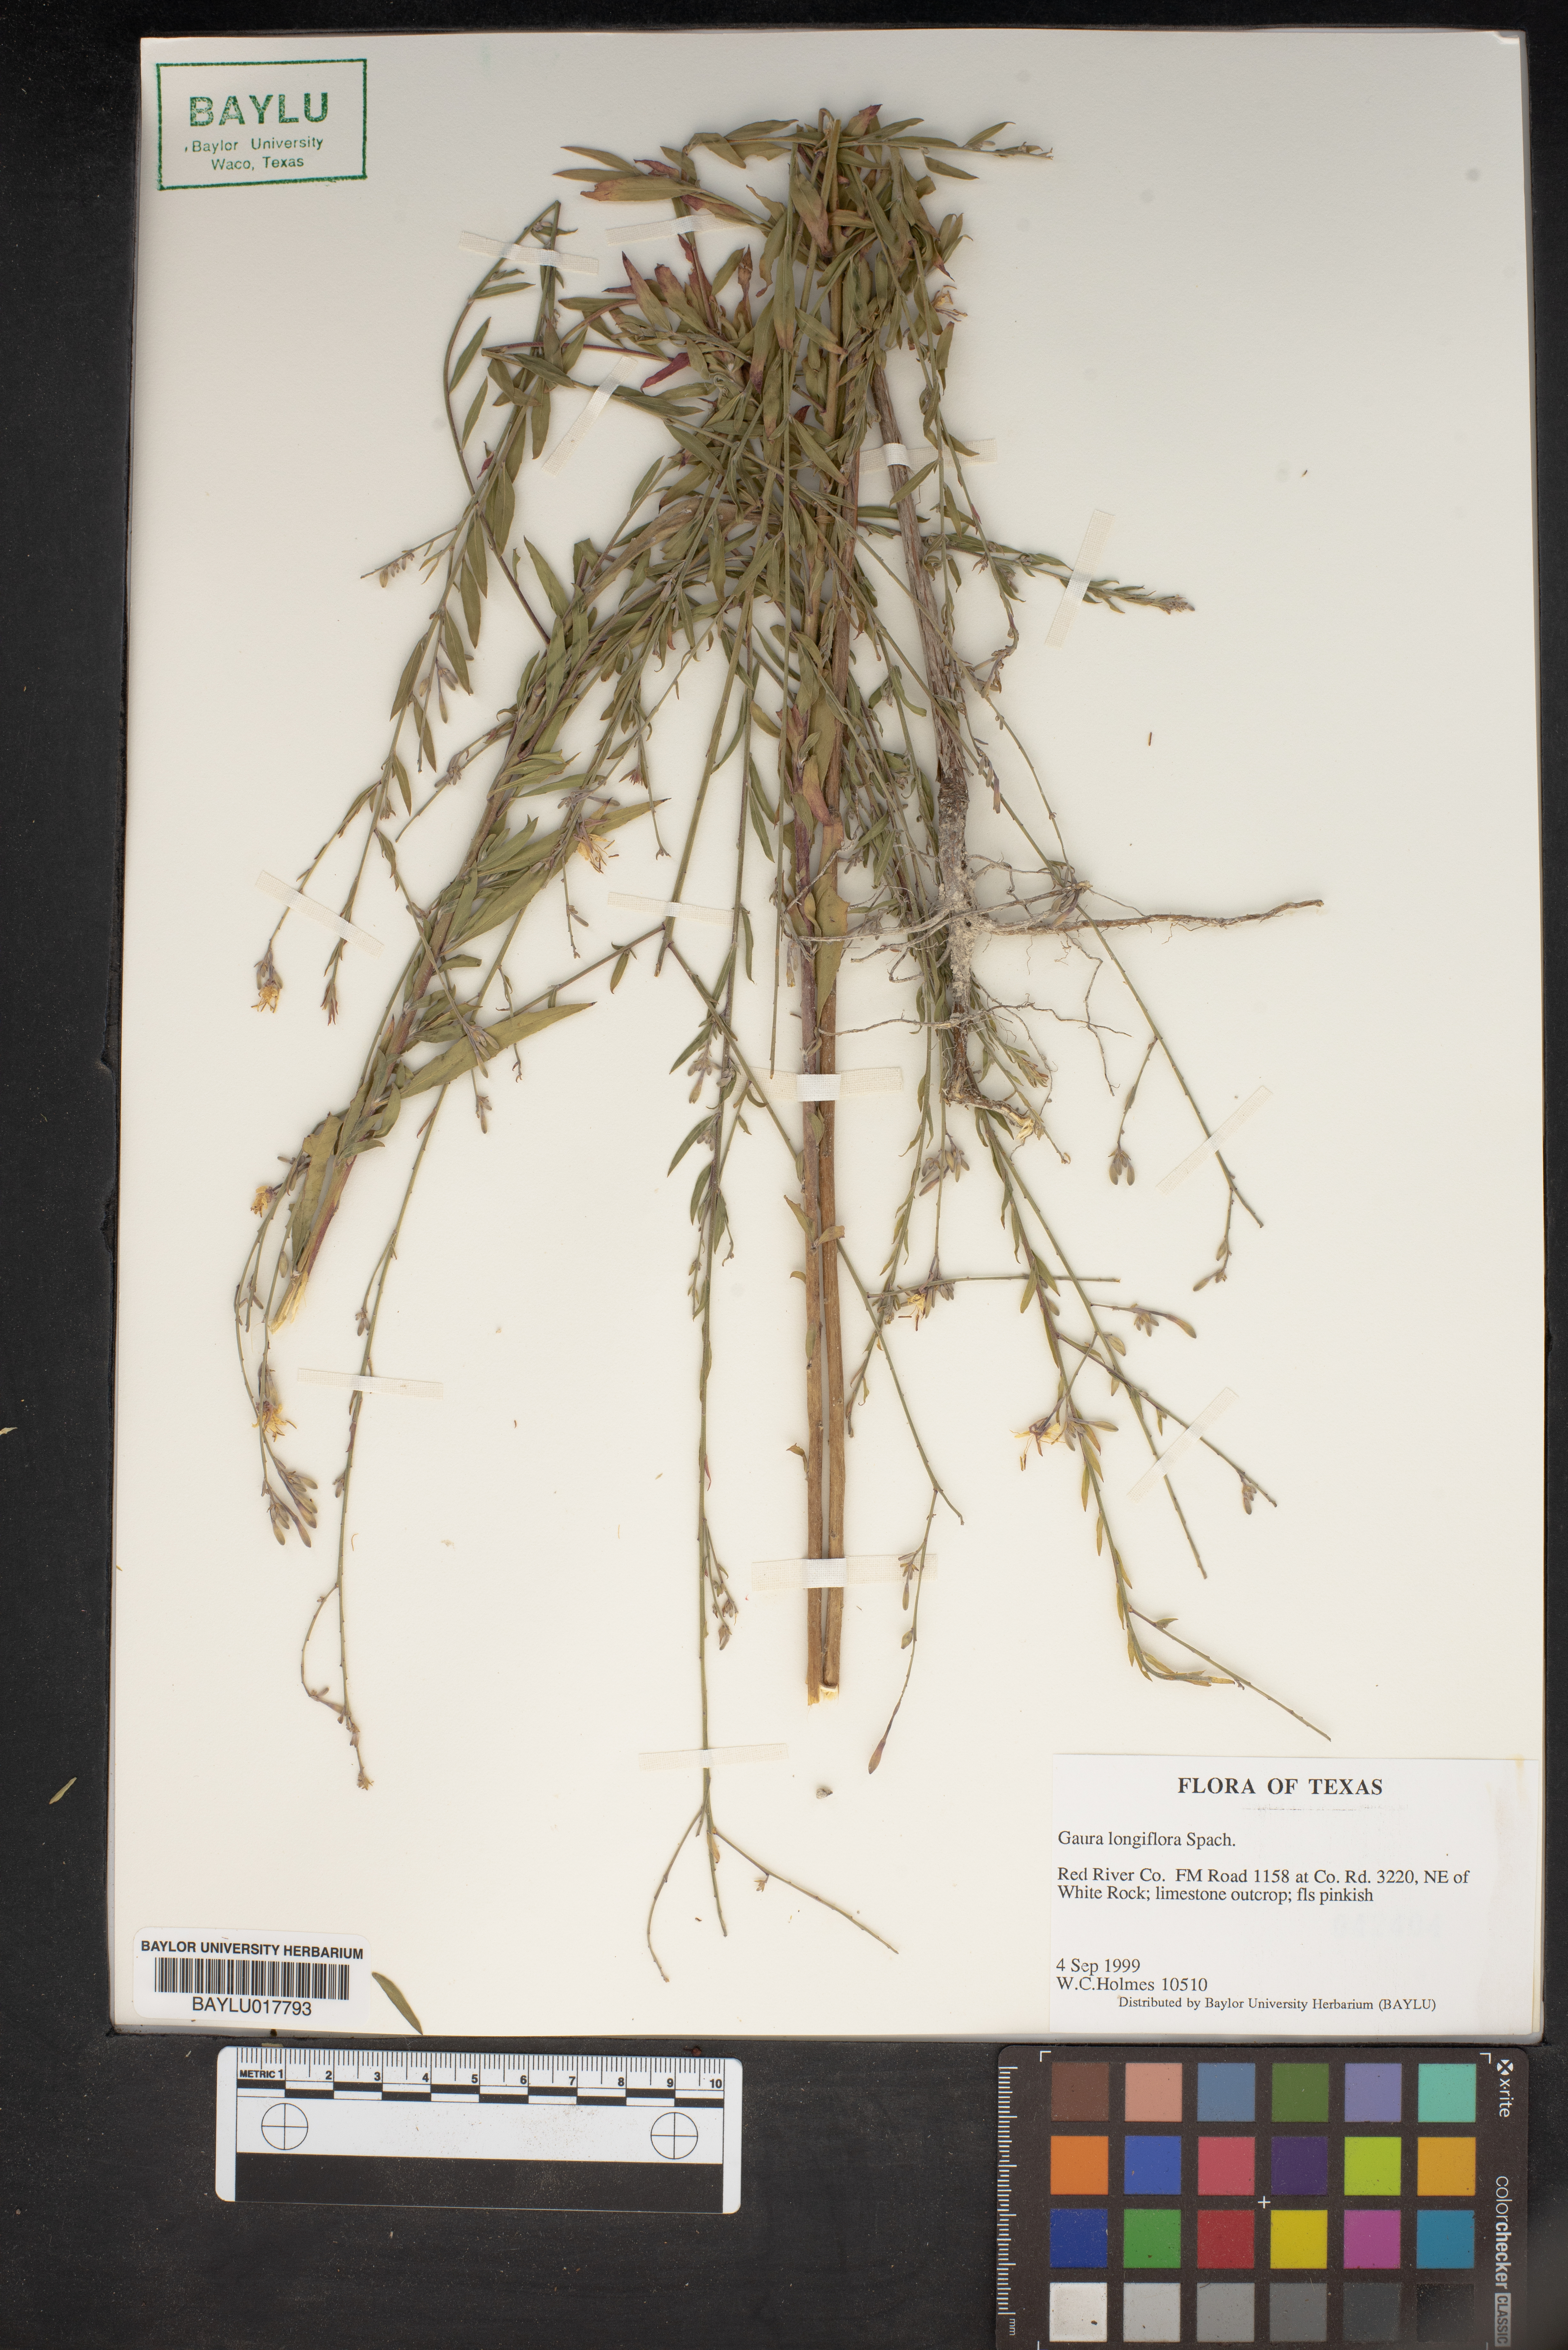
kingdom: Plantae
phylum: Tracheophyta
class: Magnoliopsida
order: Myrtales
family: Onagraceae
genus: Oenothera
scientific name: Oenothera filiformis
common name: Longflower beeblossom
